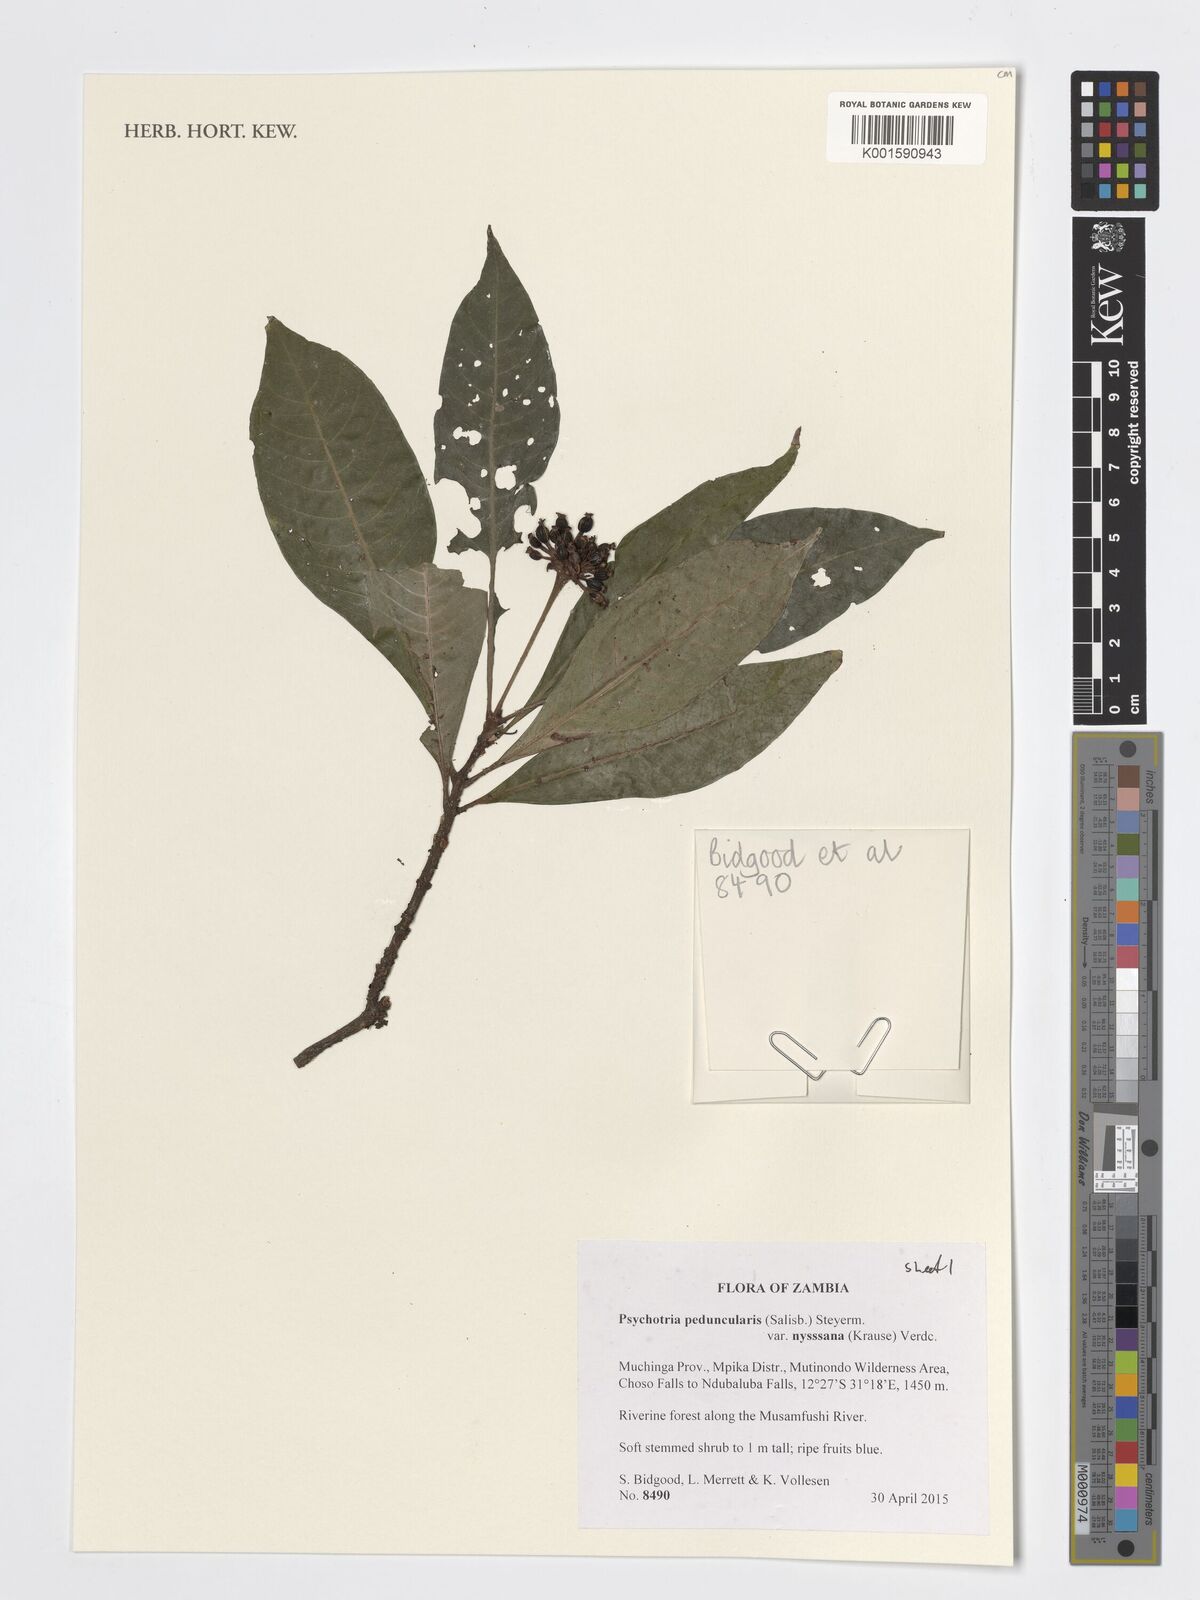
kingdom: Plantae
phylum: Tracheophyta
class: Magnoliopsida
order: Gentianales
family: Rubiaceae
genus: Psychotria
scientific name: Psychotria peduncularis
